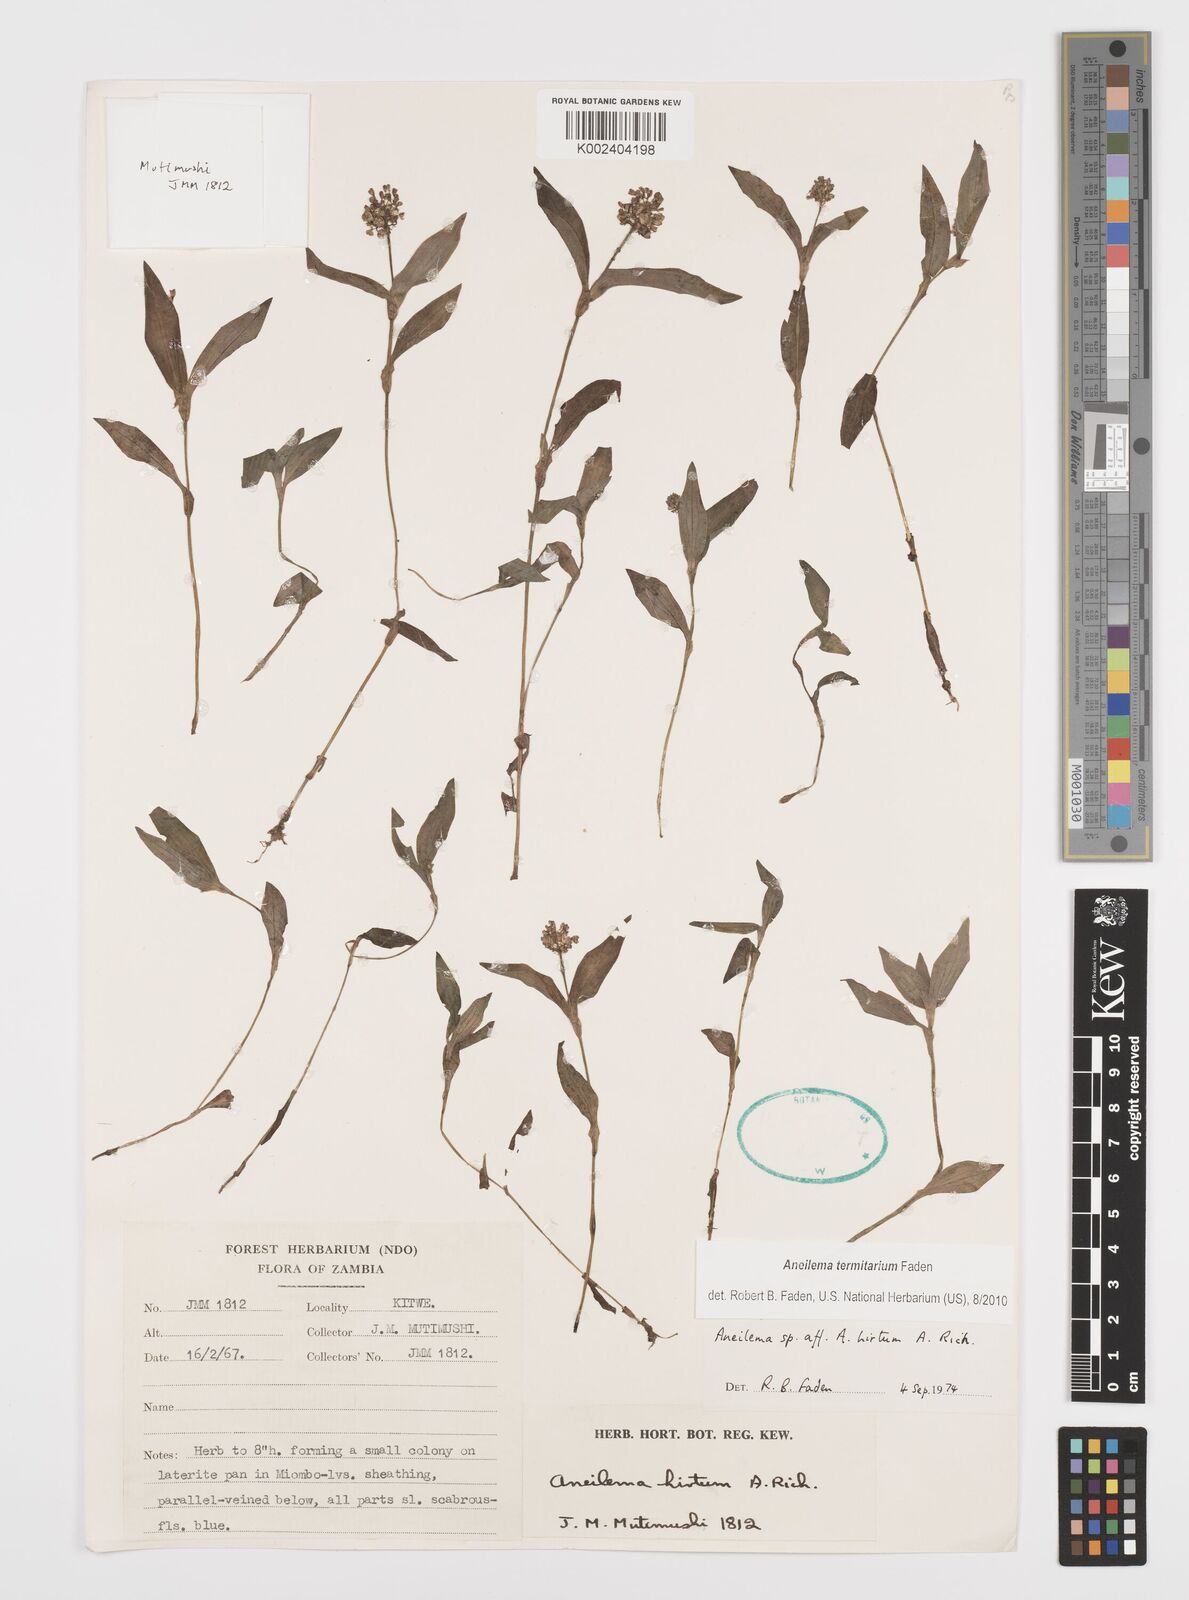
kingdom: Plantae
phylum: Tracheophyta
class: Liliopsida
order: Commelinales
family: Commelinaceae
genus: Aneilema
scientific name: Aneilema termitarium
